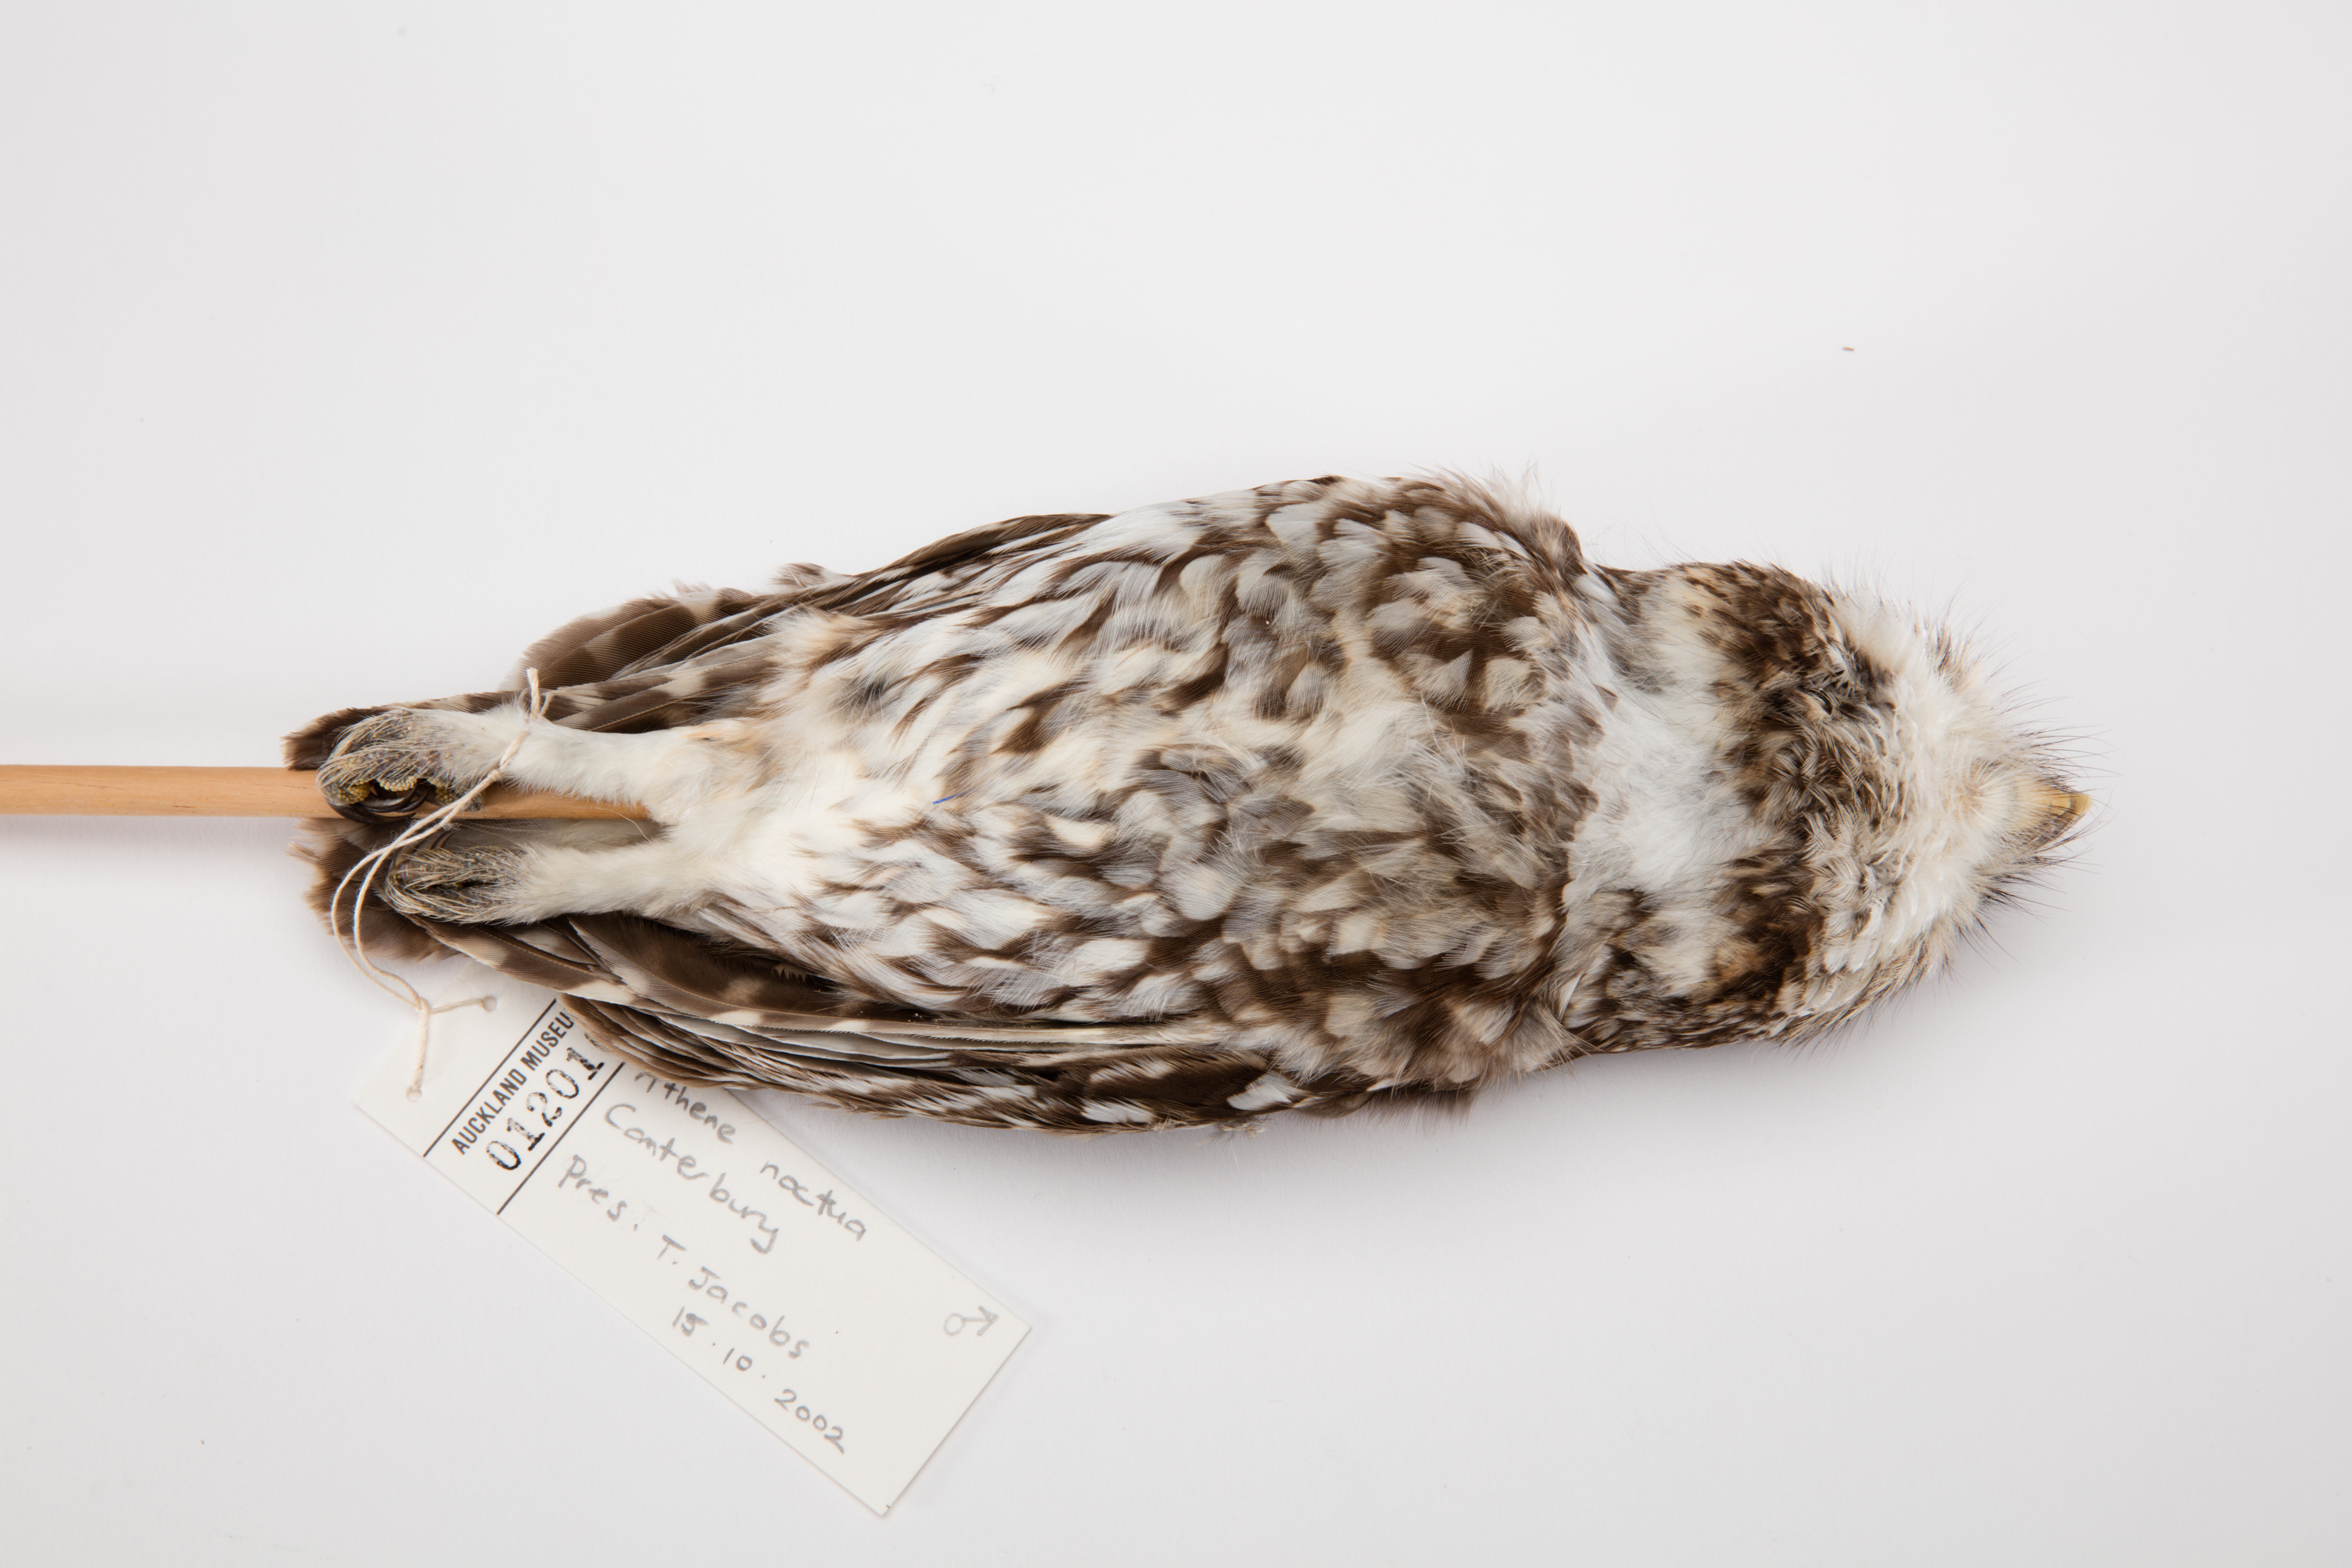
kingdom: Animalia
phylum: Chordata
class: Aves
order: Strigiformes
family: Strigidae
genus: Athene
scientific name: Athene noctua
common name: Little owl
